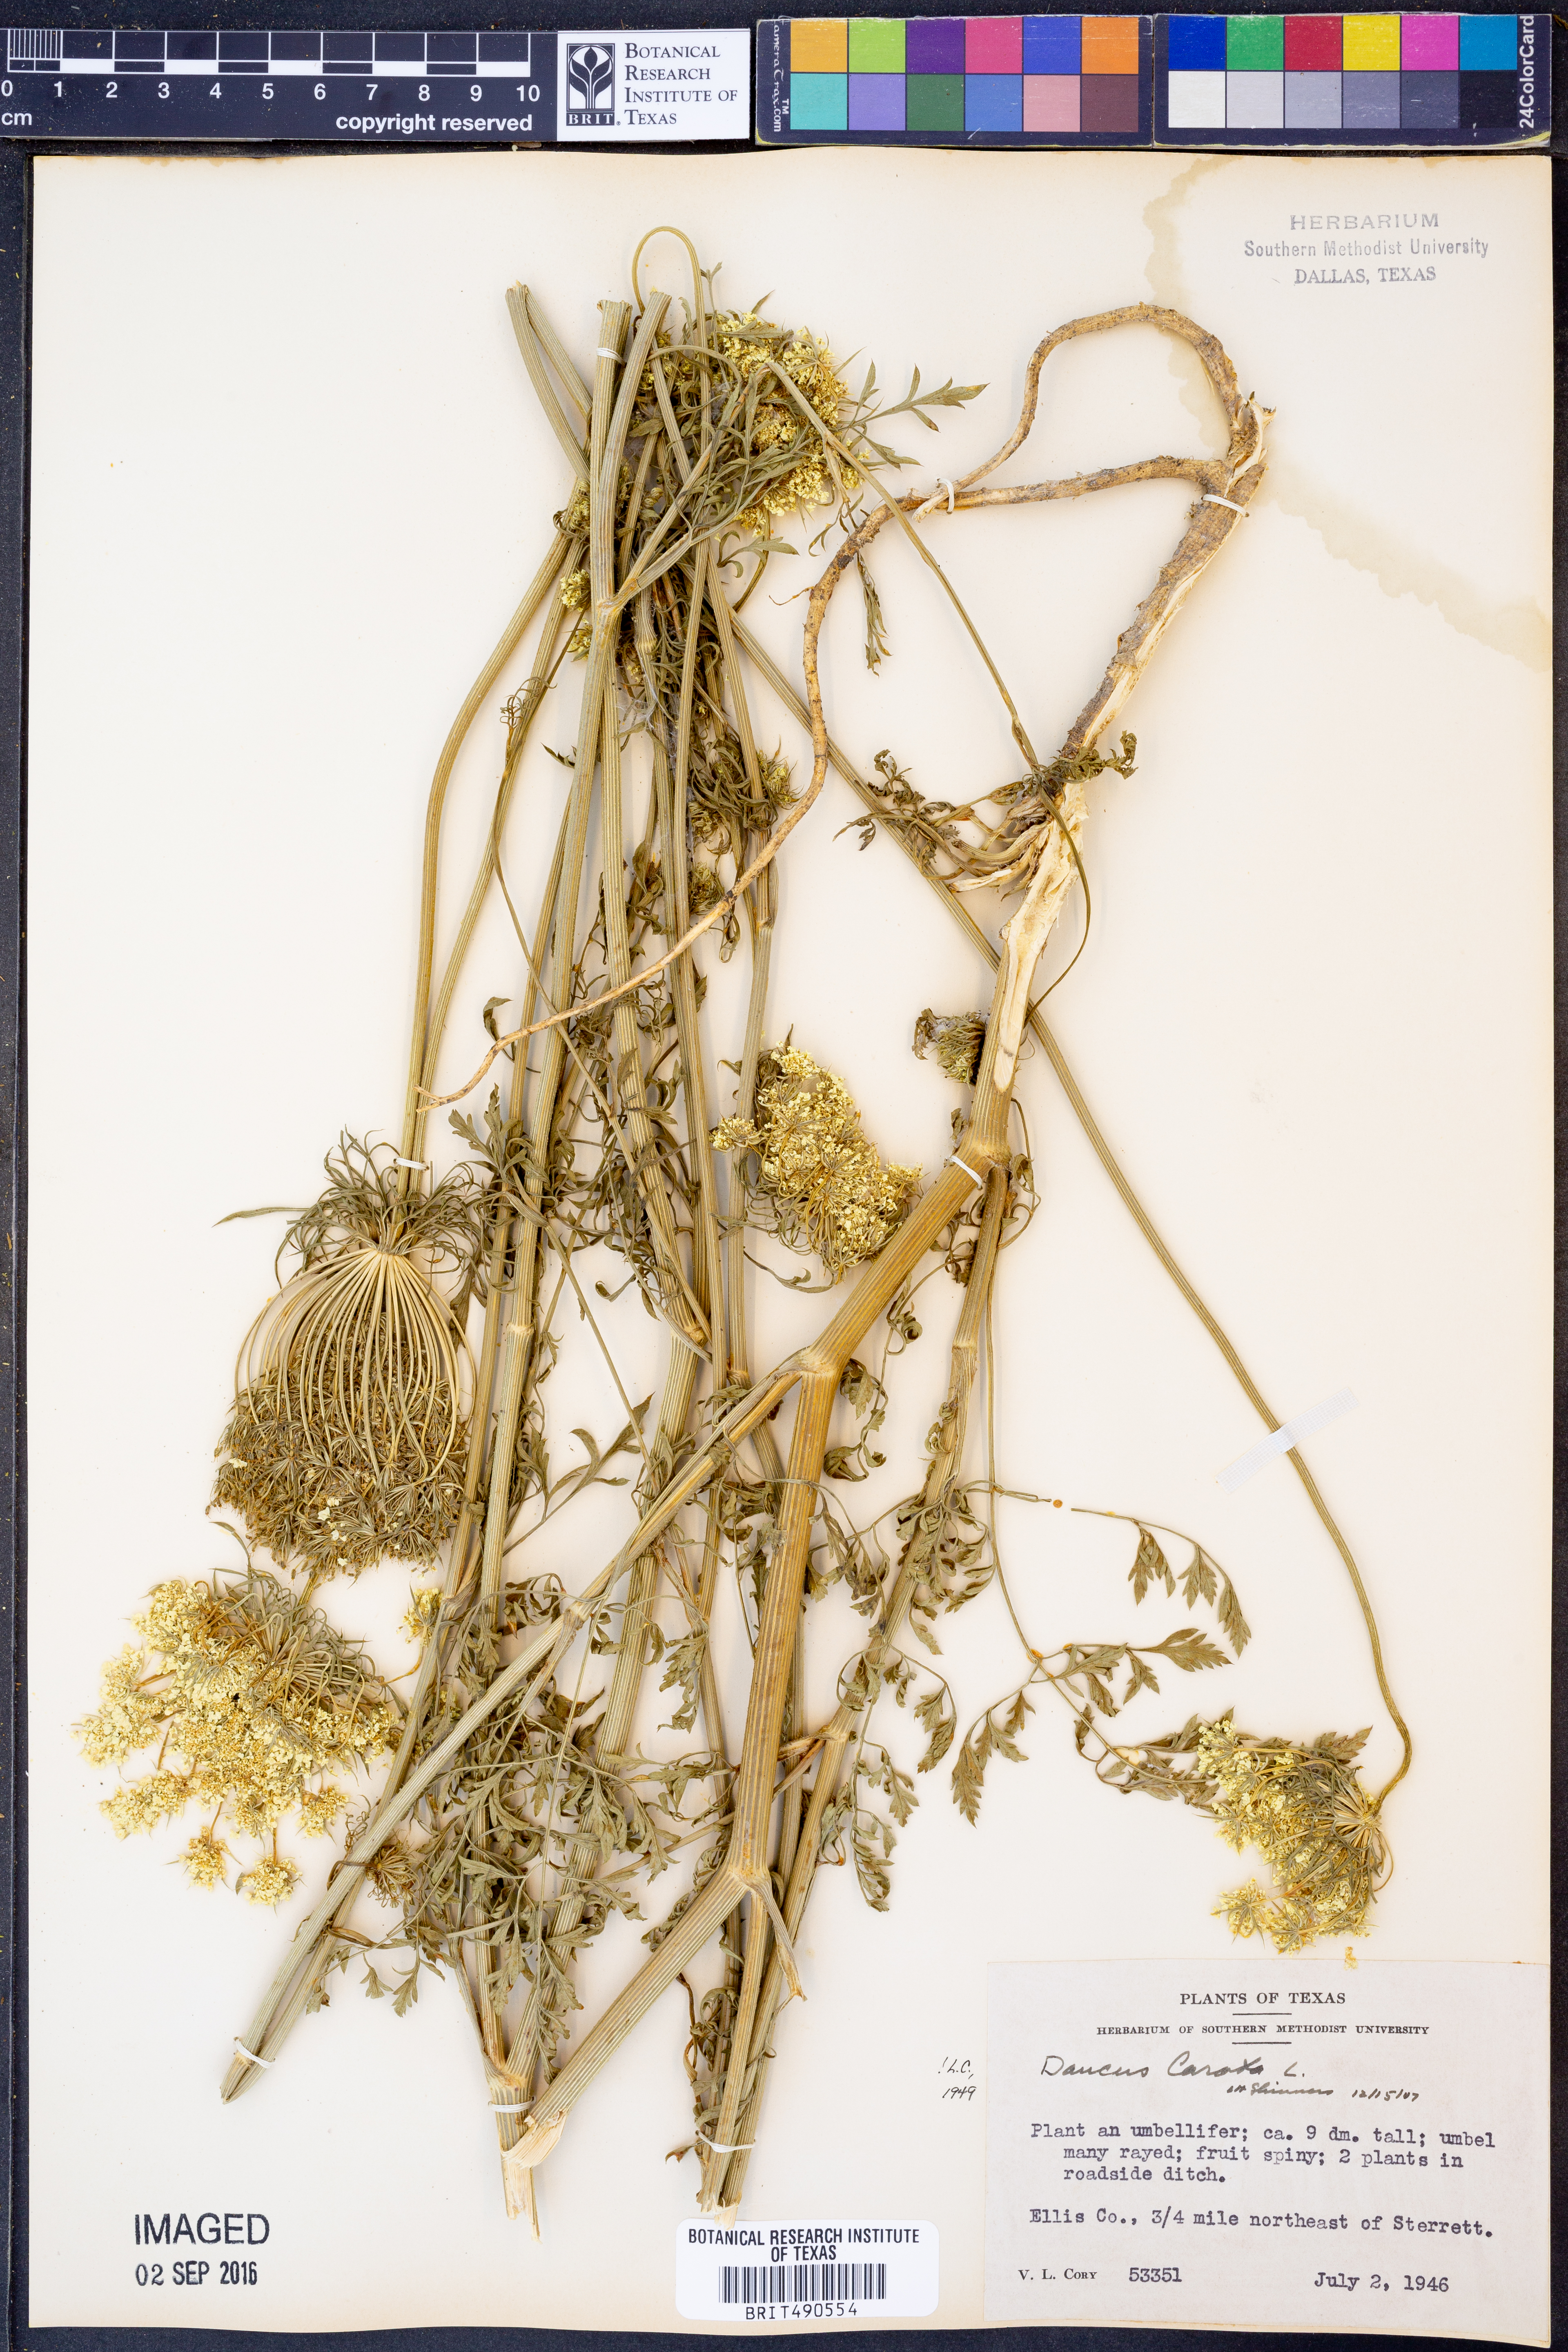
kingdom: Plantae
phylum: Tracheophyta
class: Magnoliopsida
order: Apiales
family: Apiaceae
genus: Daucus
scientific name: Daucus carota
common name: Wild carrot
